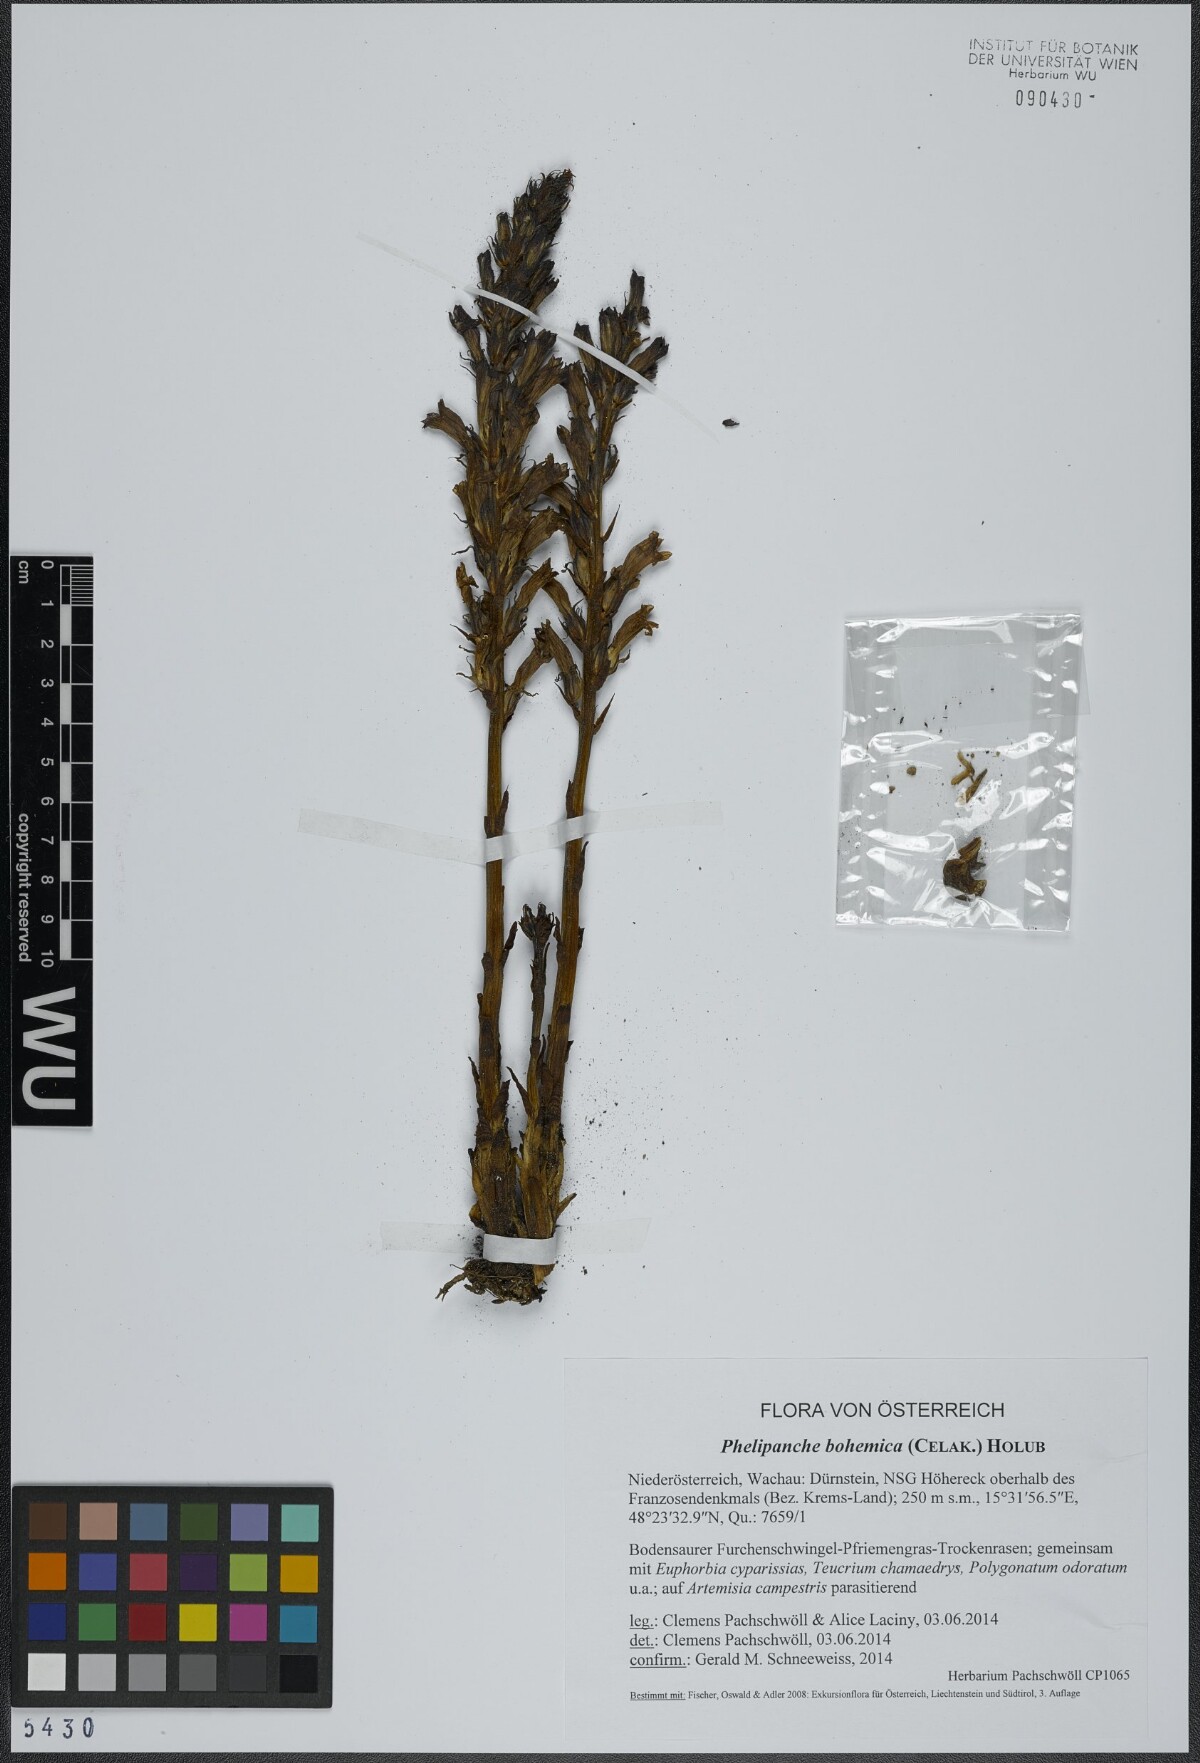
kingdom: Plantae
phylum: Tracheophyta
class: Magnoliopsida
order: Lamiales
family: Orobanchaceae
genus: Phelipanche
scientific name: Phelipanche bohemica
